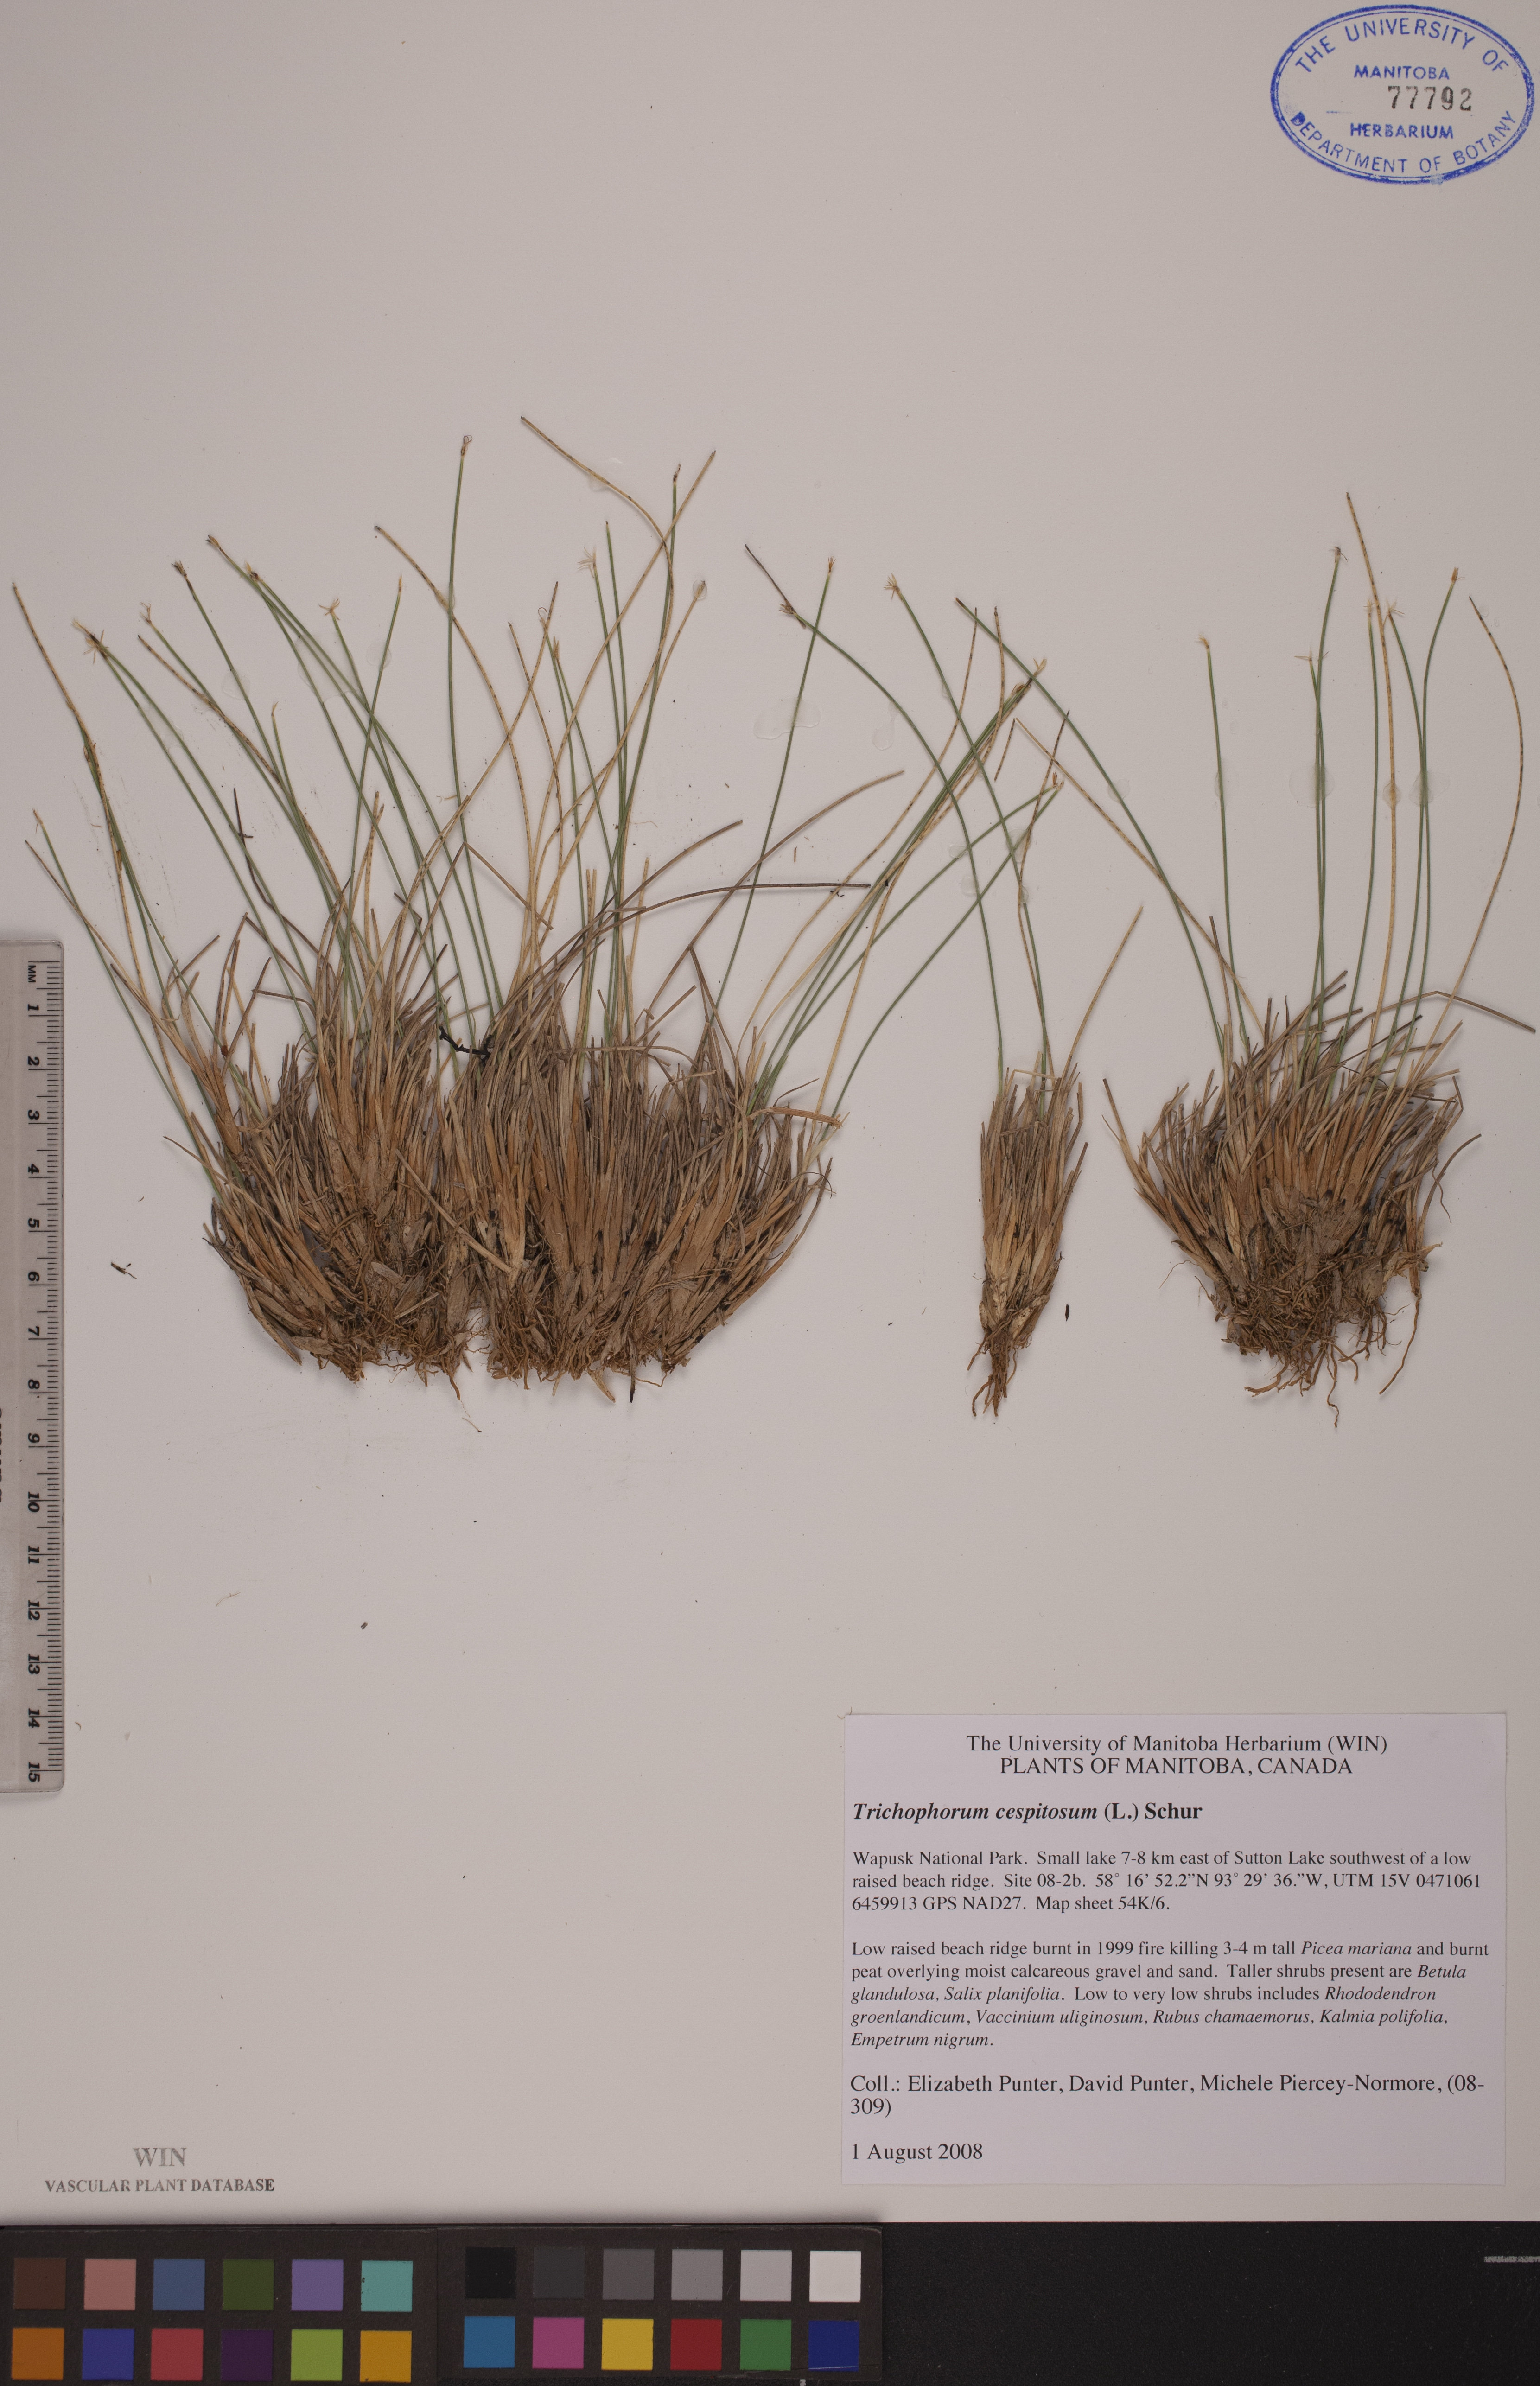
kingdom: Plantae
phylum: Tracheophyta
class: Liliopsida
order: Poales
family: Cyperaceae
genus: Trichophorum
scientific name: Trichophorum cespitosum
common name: Cespitose bulrush
